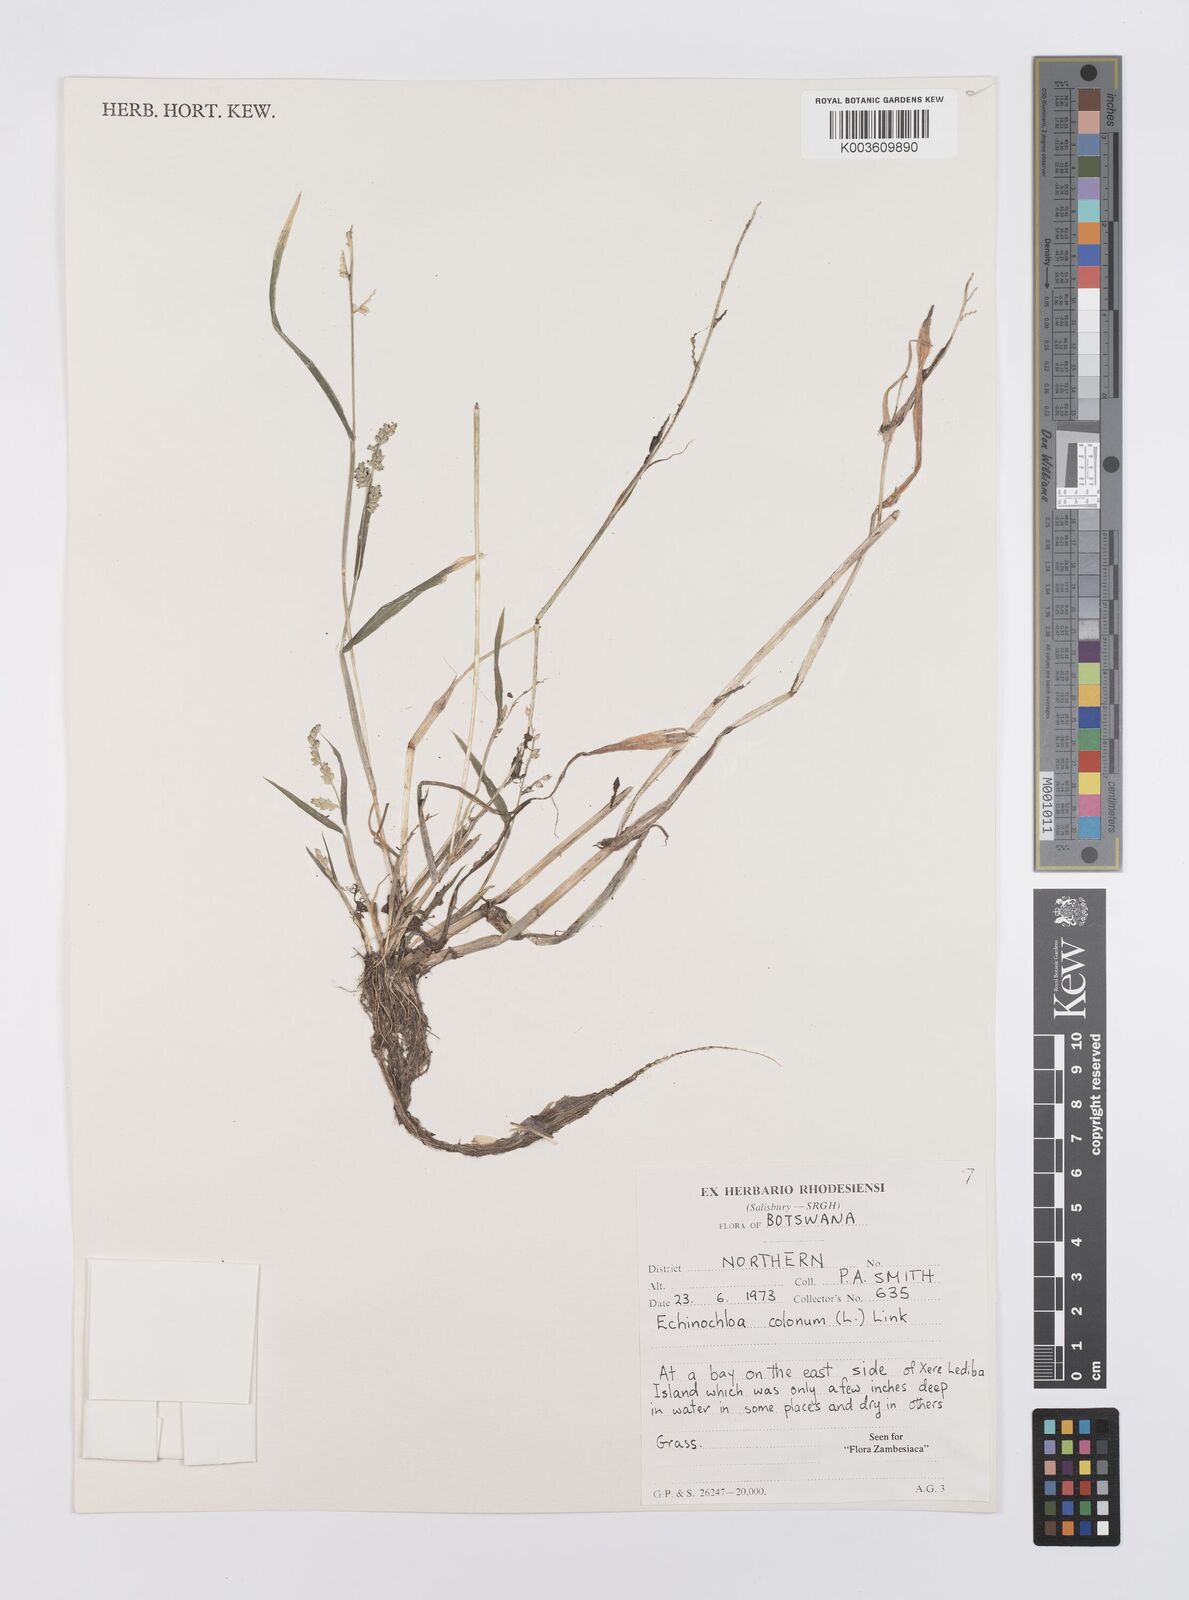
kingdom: Plantae
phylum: Tracheophyta
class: Liliopsida
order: Poales
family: Poaceae
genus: Echinochloa
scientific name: Echinochloa colonum
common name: Jungle rice
